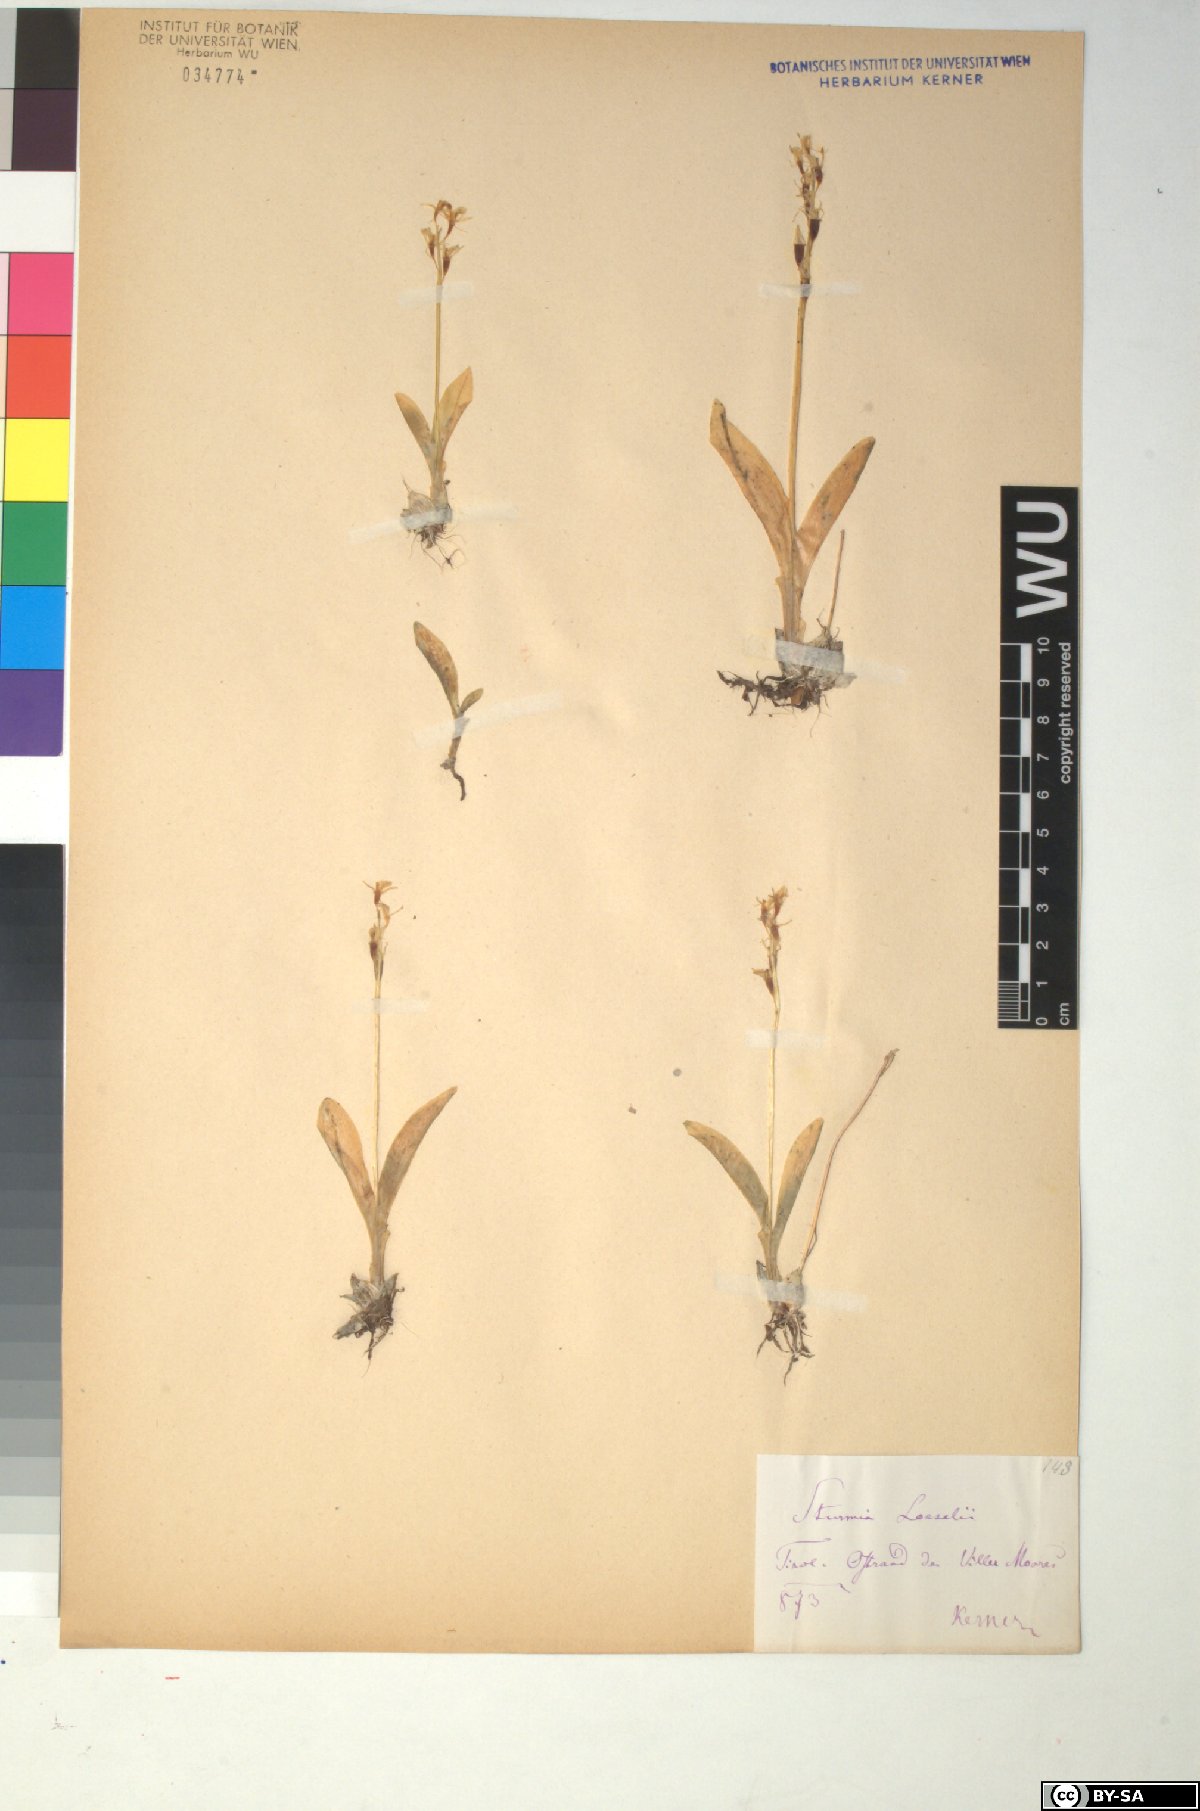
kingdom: Animalia
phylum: Arthropoda
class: Insecta
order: Coleoptera
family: Curculionidae
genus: Liparis
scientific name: Liparis loeselii
